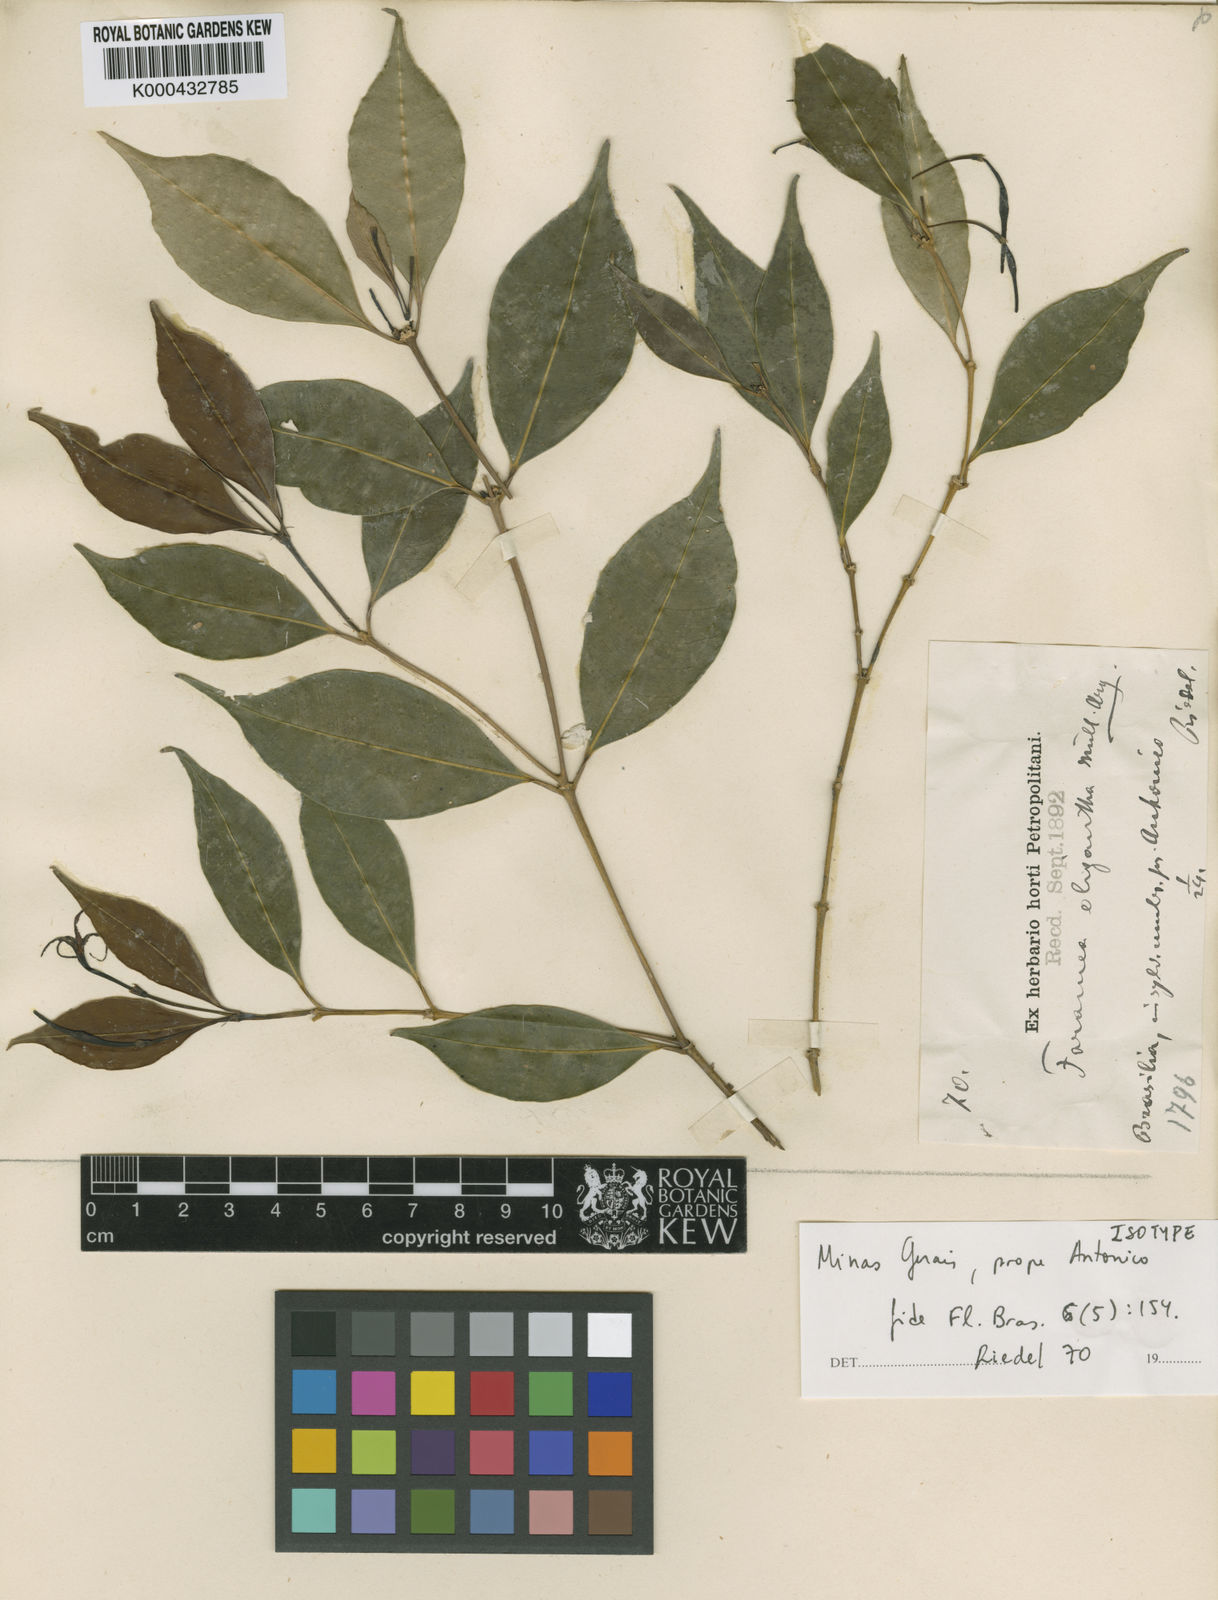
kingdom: Plantae
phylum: Tracheophyta
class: Magnoliopsida
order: Gentianales
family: Rubiaceae
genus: Faramea
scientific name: Faramea
